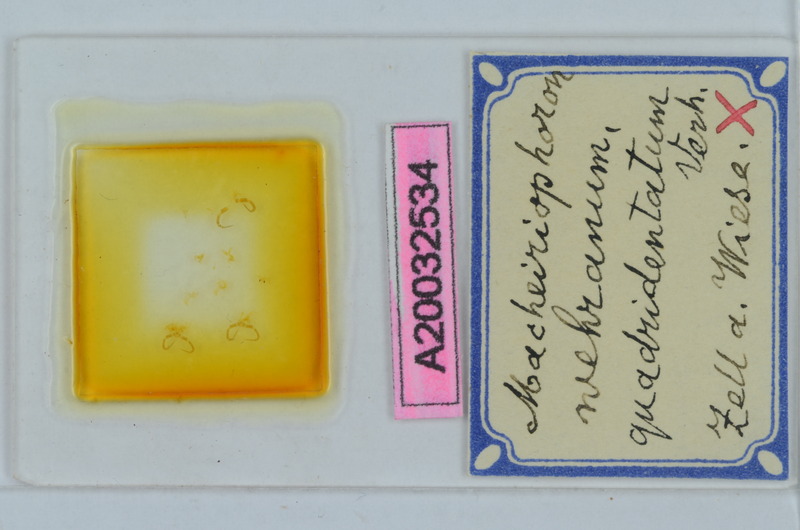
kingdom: Animalia
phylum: Arthropoda
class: Diplopoda
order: Chordeumatida
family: Craspedosomatidae
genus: Rhymogona
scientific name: Rhymogona wehrana
